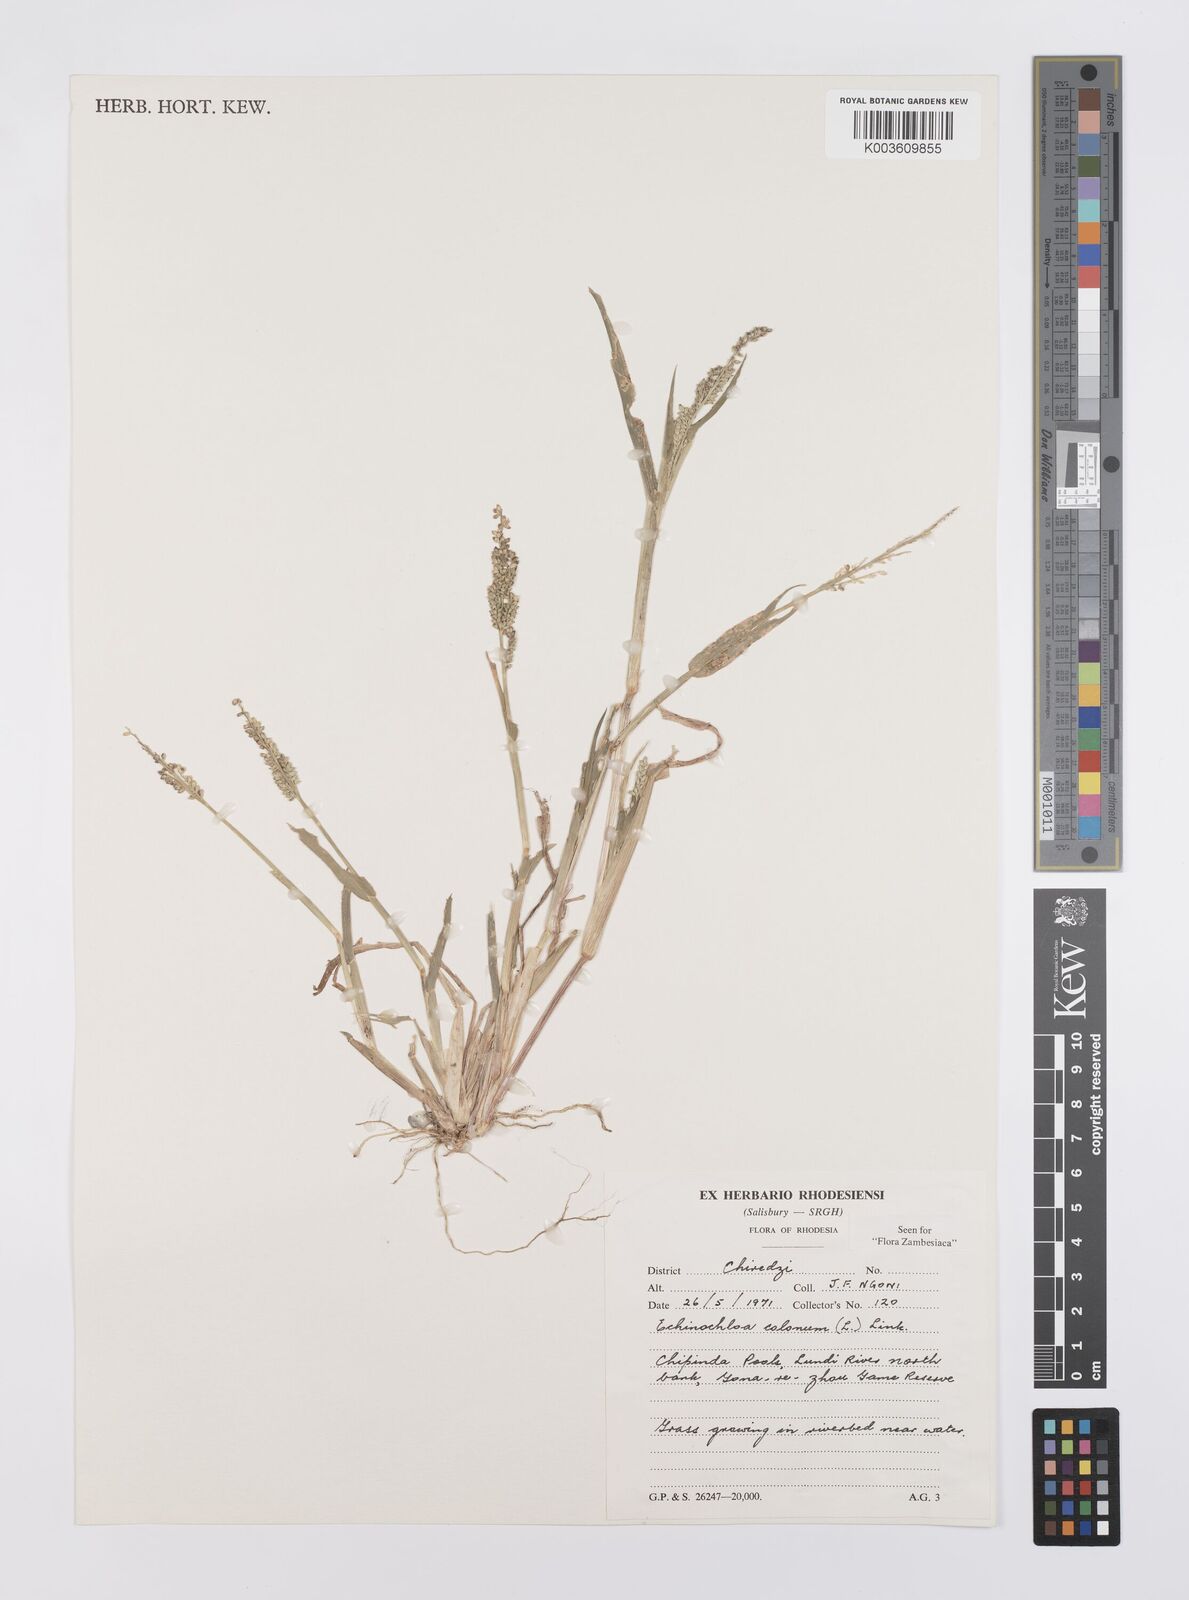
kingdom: Plantae
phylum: Tracheophyta
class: Liliopsida
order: Poales
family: Poaceae
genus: Echinochloa
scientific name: Echinochloa colonum
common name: Jungle rice
